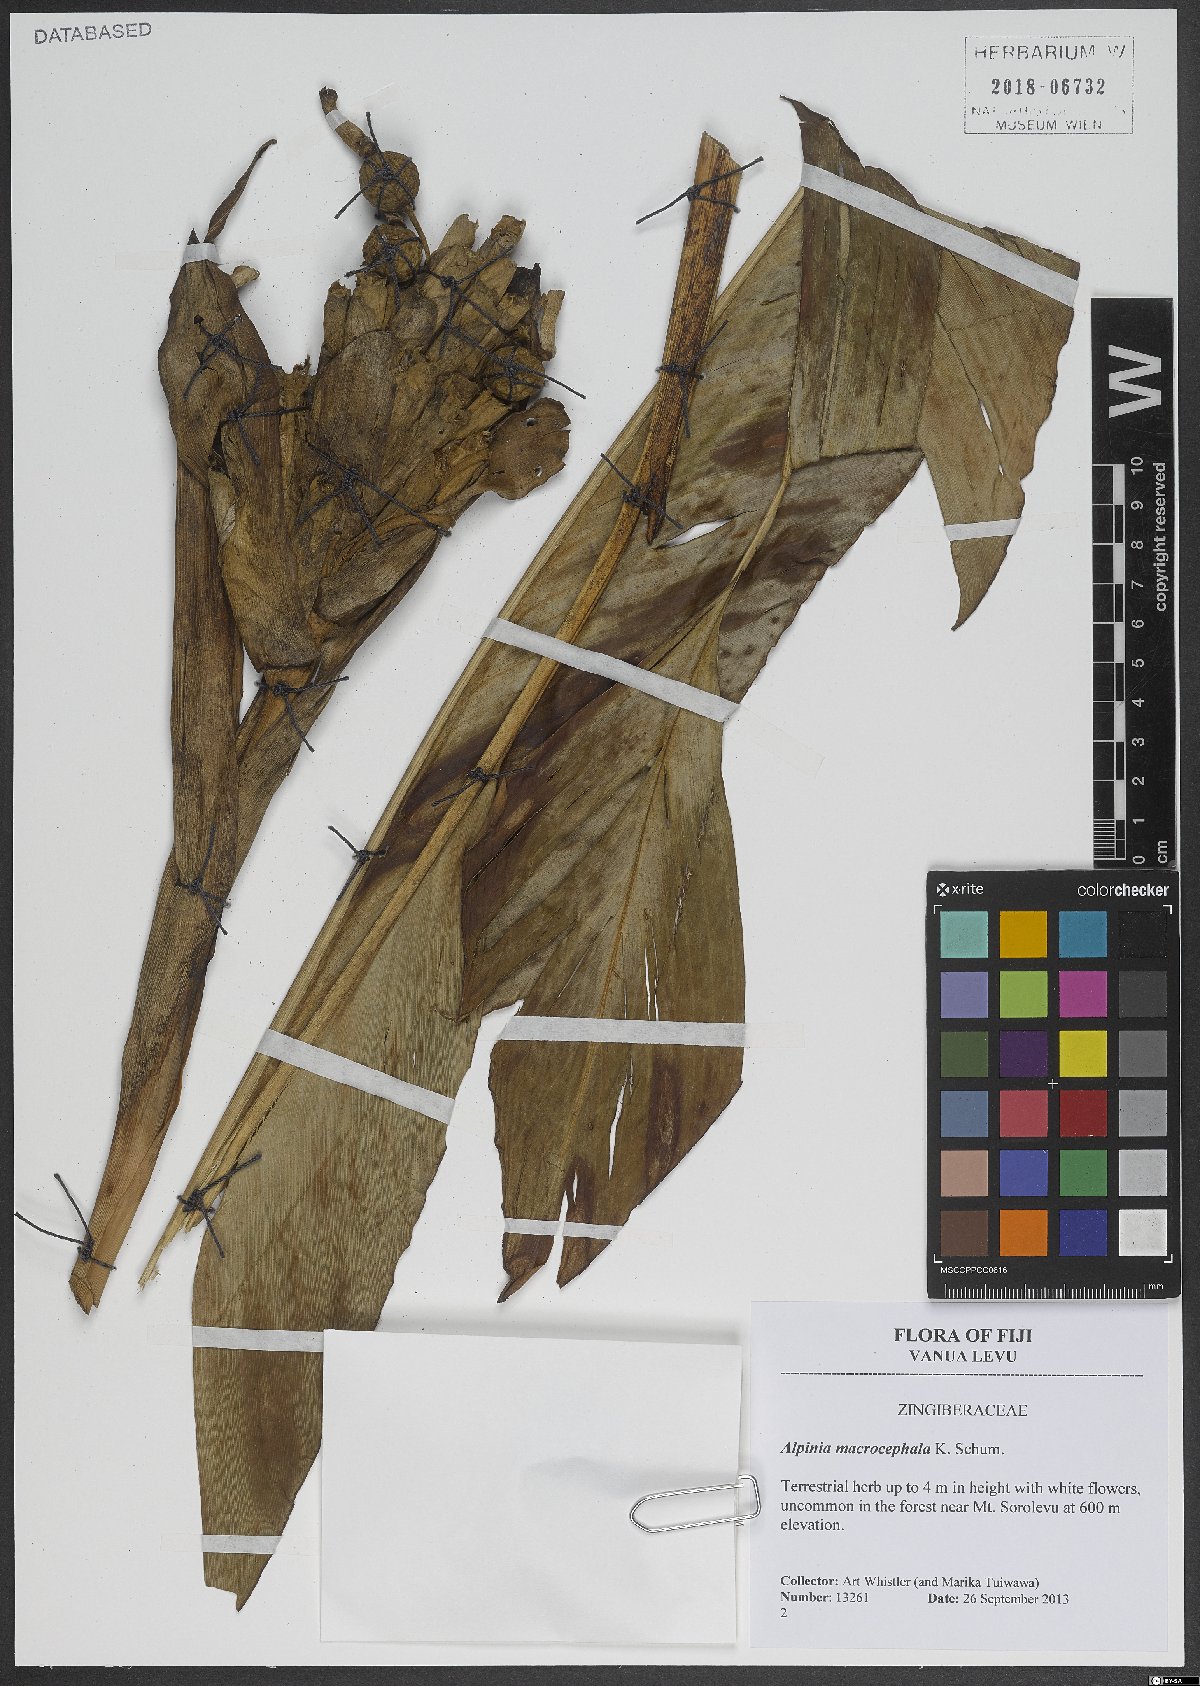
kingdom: Plantae
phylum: Tracheophyta
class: Liliopsida
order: Zingiberales
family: Zingiberaceae
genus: Alpinia
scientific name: Alpinia macrocephala
